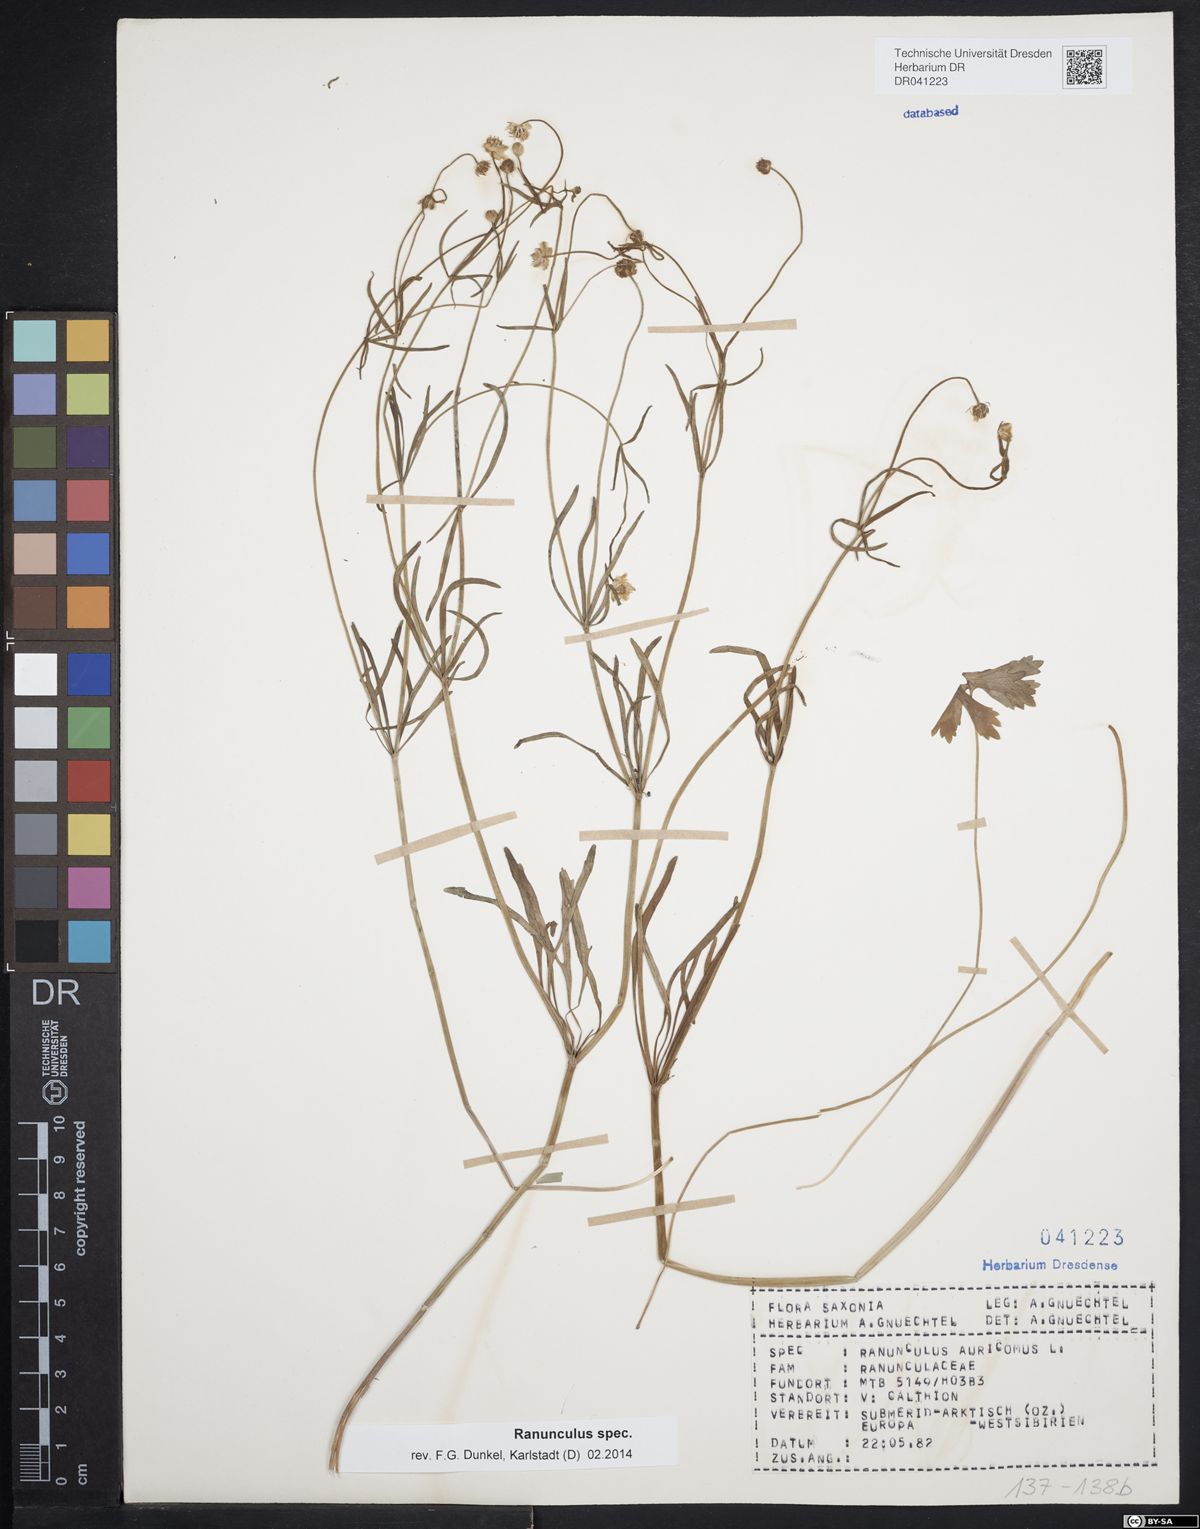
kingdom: Plantae
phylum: Tracheophyta
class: Magnoliopsida
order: Ranunculales
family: Ranunculaceae
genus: Ranunculus
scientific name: Ranunculus auricomus
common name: Goldilocks buttercup
